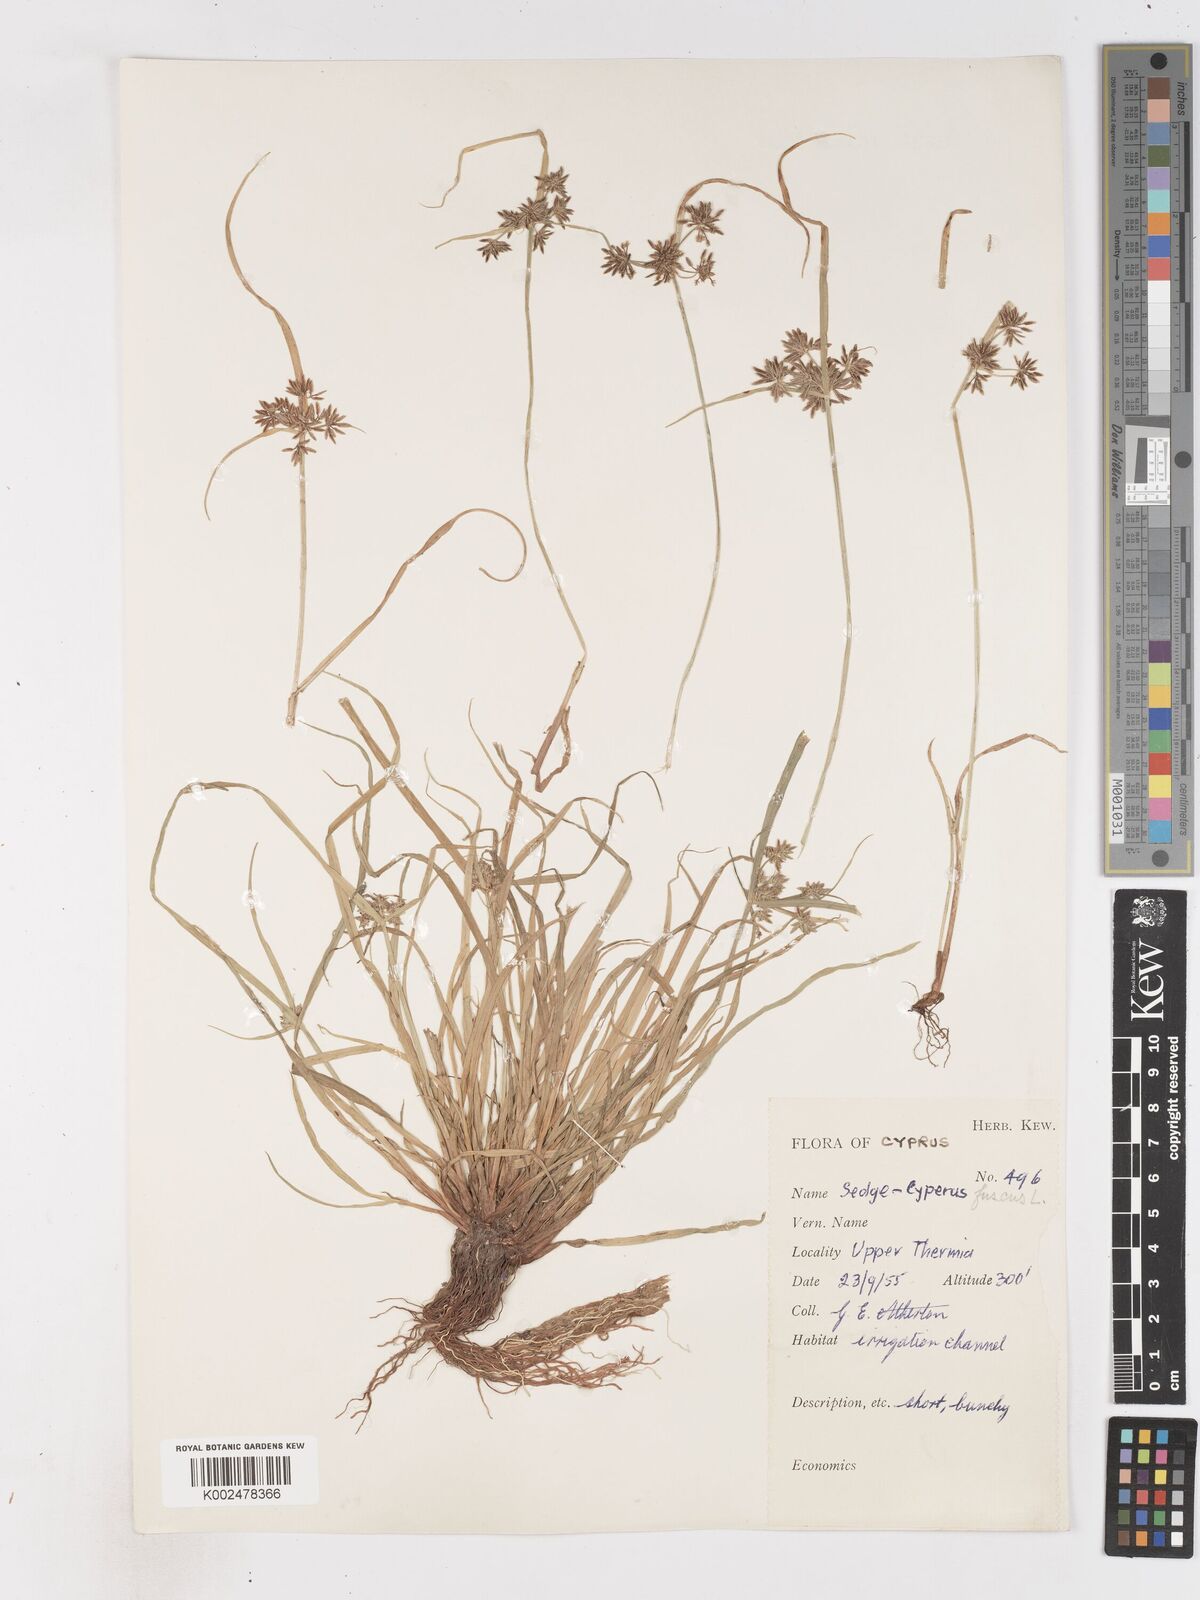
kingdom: Plantae
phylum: Tracheophyta
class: Liliopsida
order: Poales
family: Cyperaceae
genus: Cyperus
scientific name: Cyperus fuscus
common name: Brown galingale
